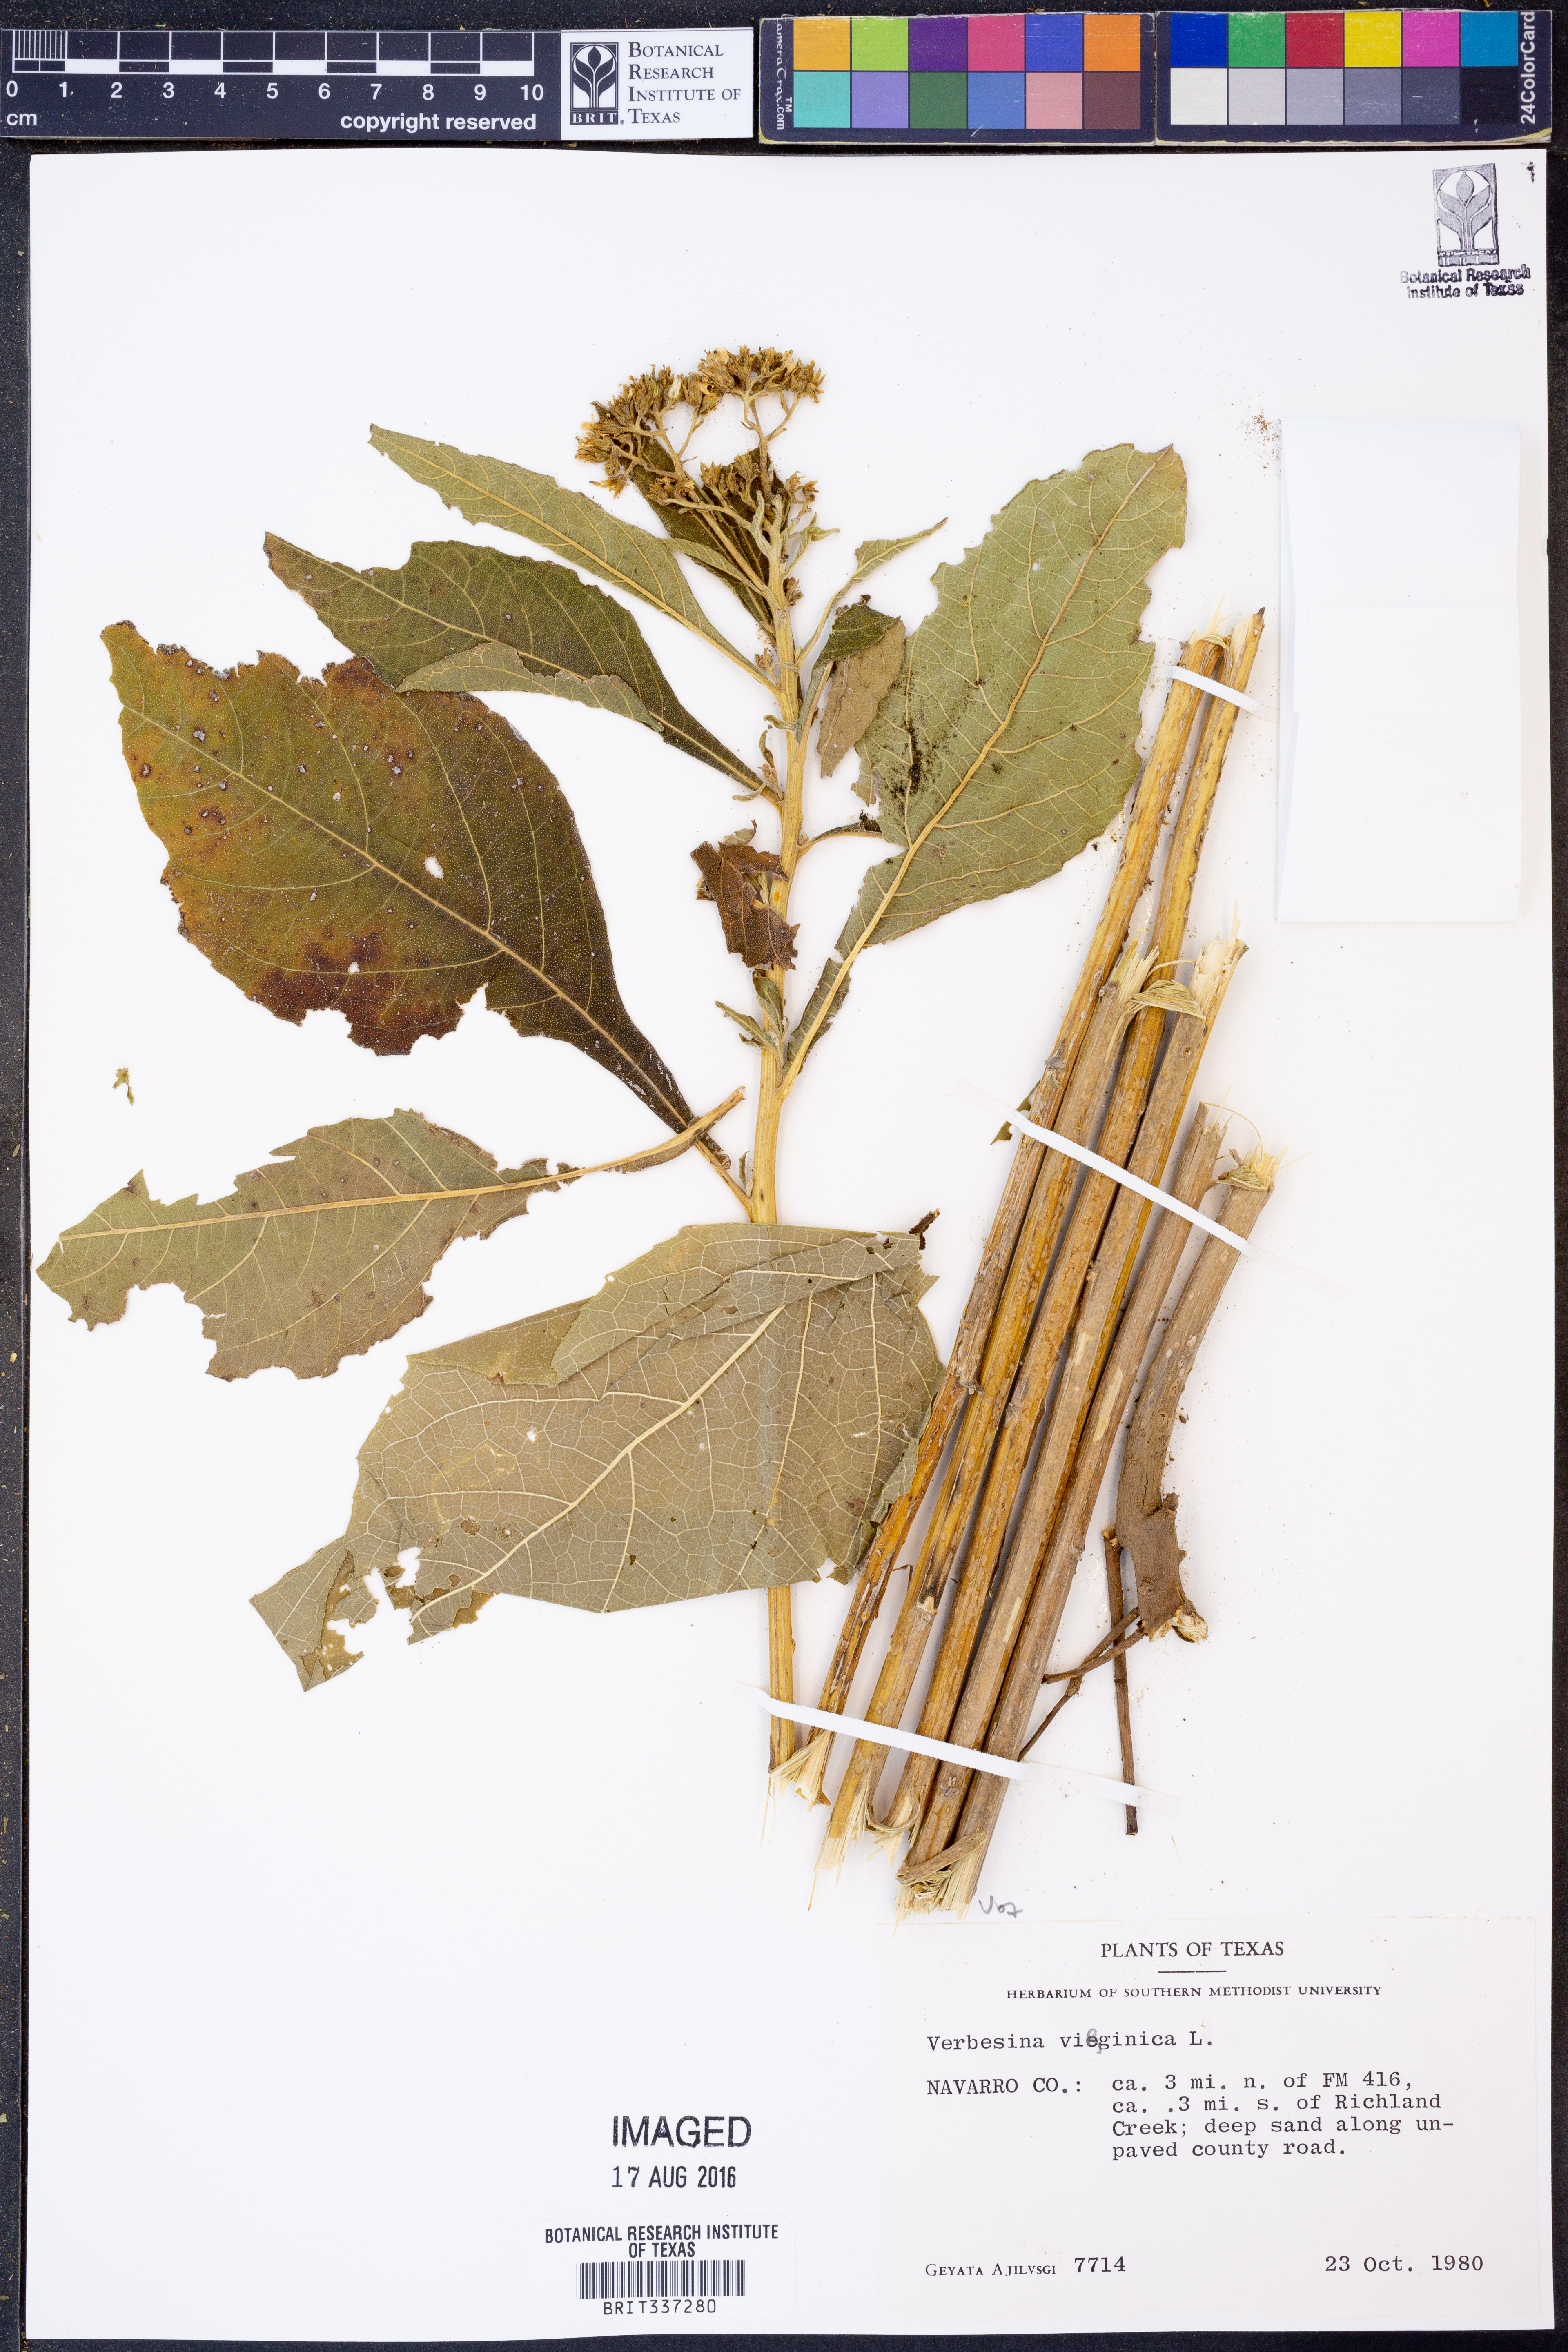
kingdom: Plantae
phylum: Tracheophyta
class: Magnoliopsida
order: Asterales
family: Asteraceae
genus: Verbesina
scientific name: Verbesina virginica
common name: Frostweed
